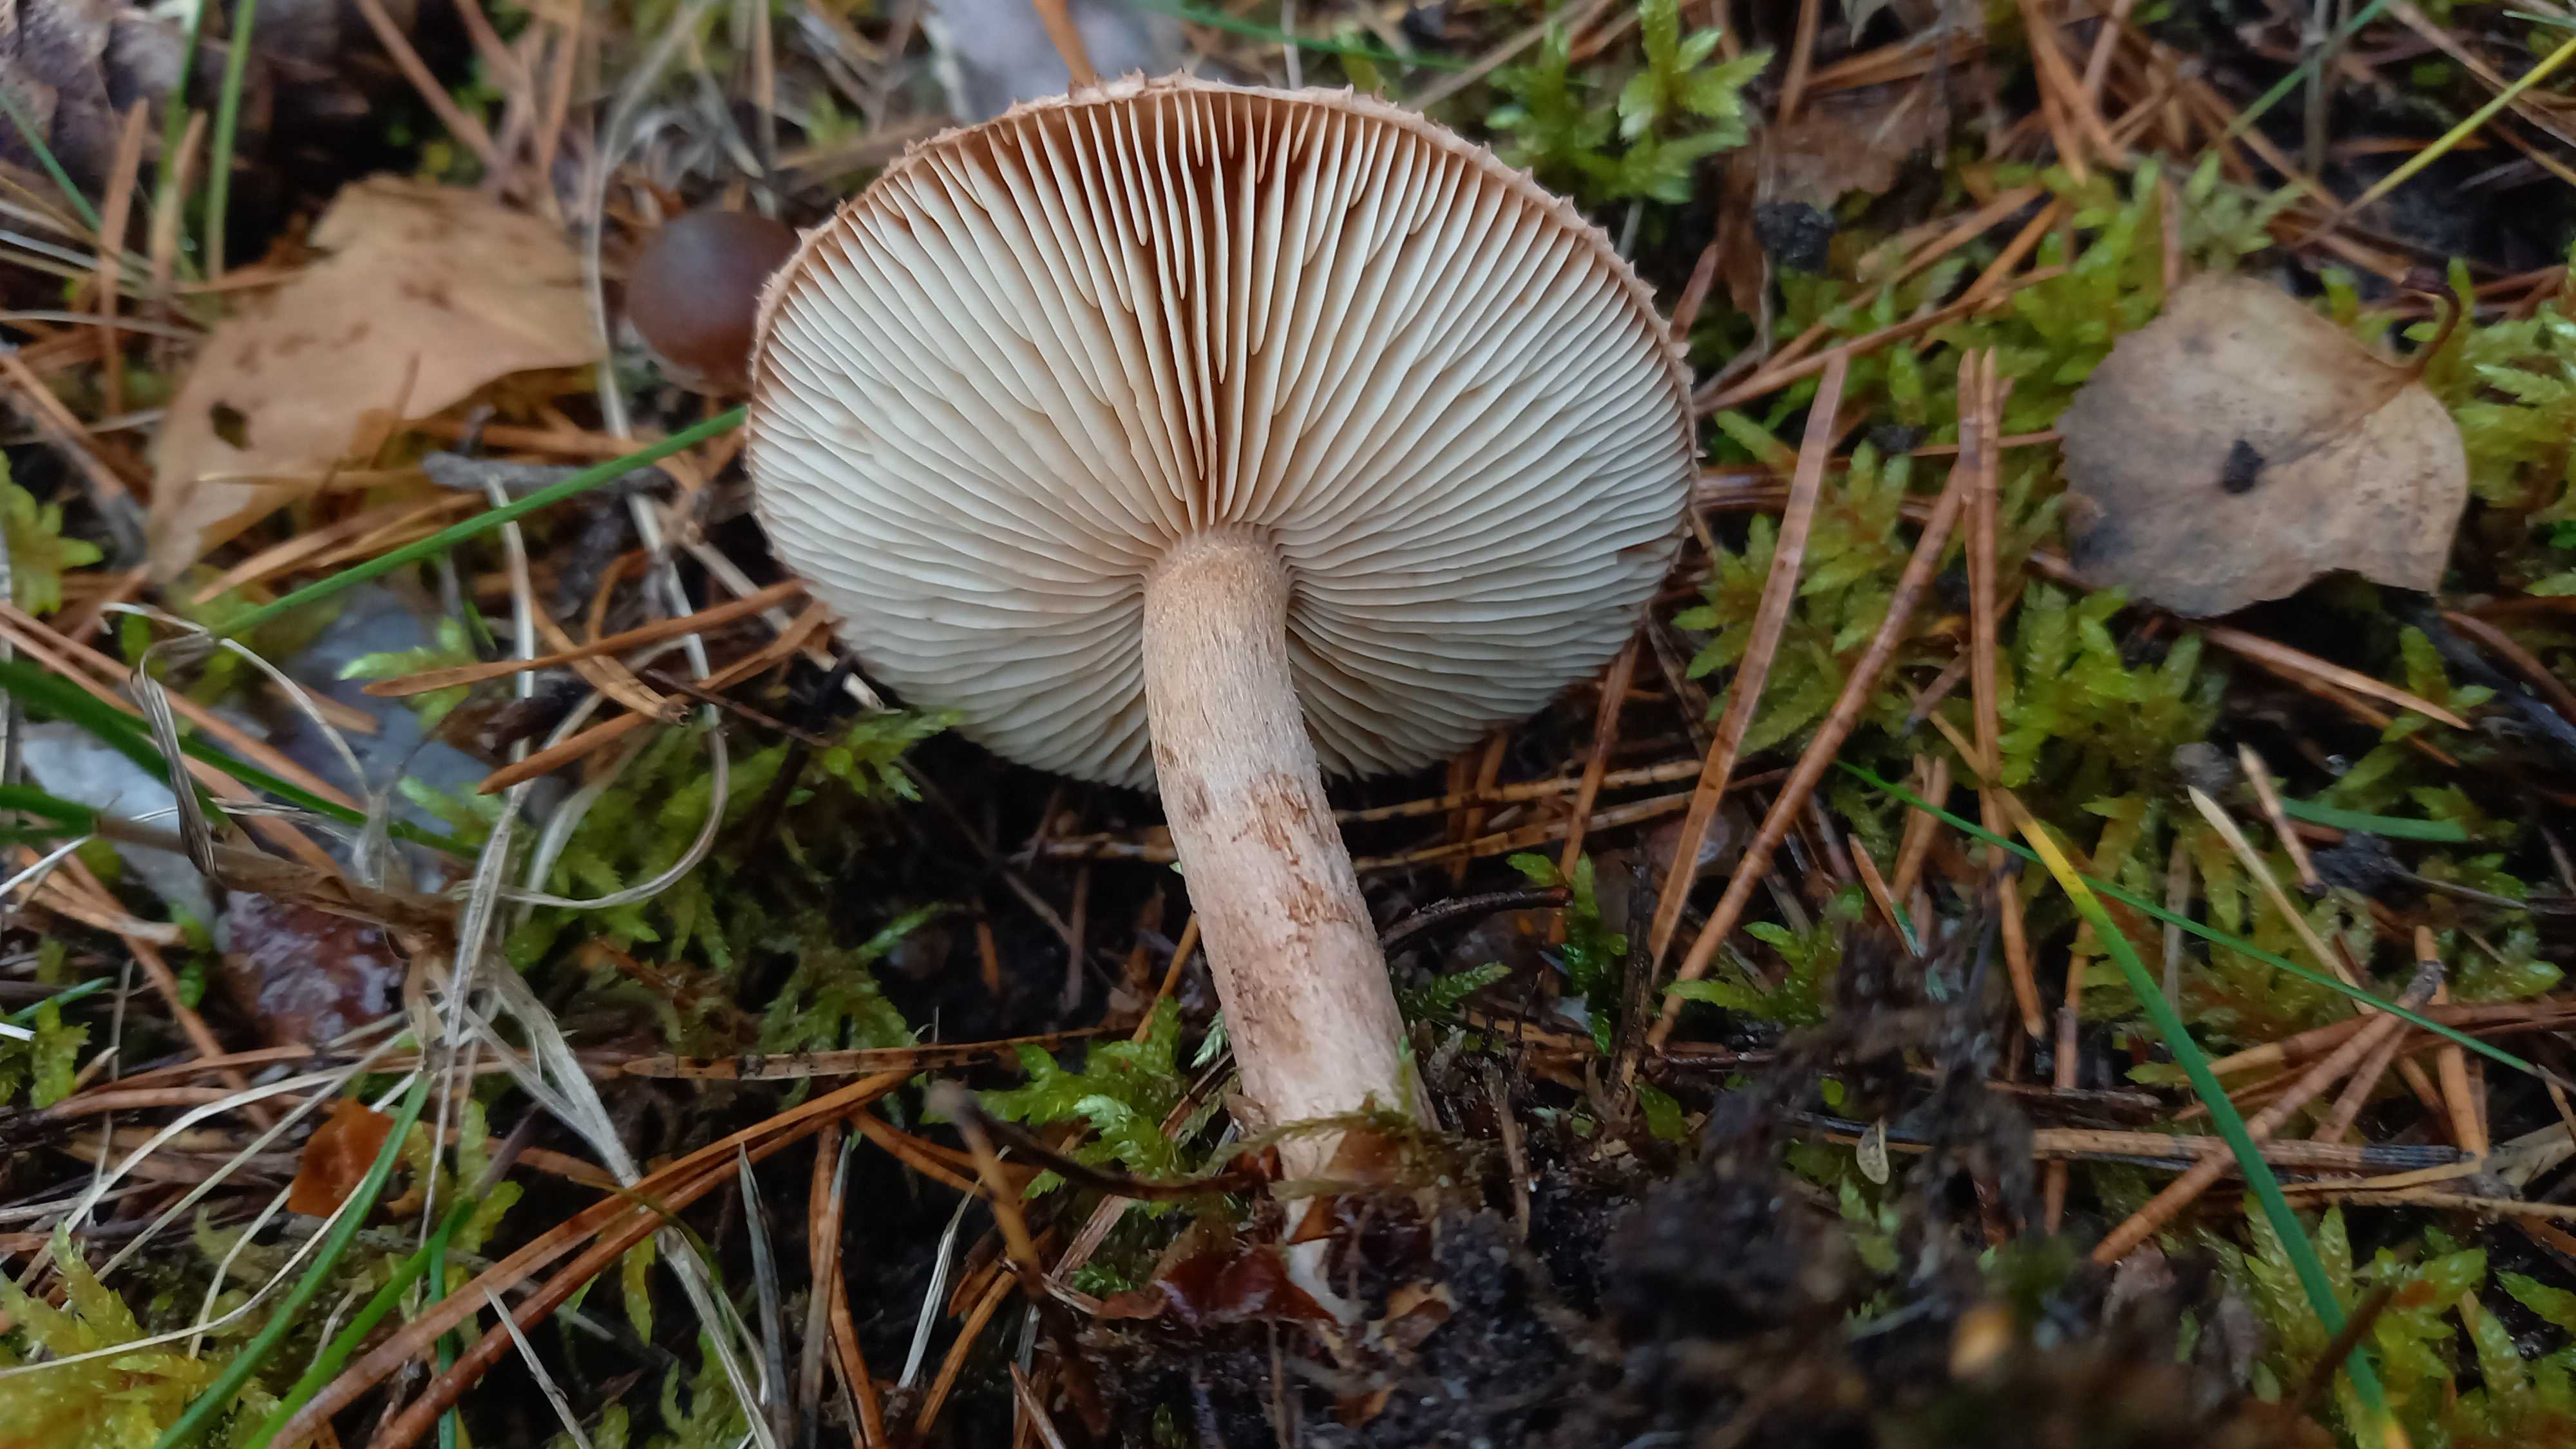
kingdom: Fungi
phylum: Basidiomycota
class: Agaricomycetes
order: Agaricales
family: Tricholomataceae
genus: Tricholoma
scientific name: Tricholoma vaccinum
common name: ko-ridderhat
